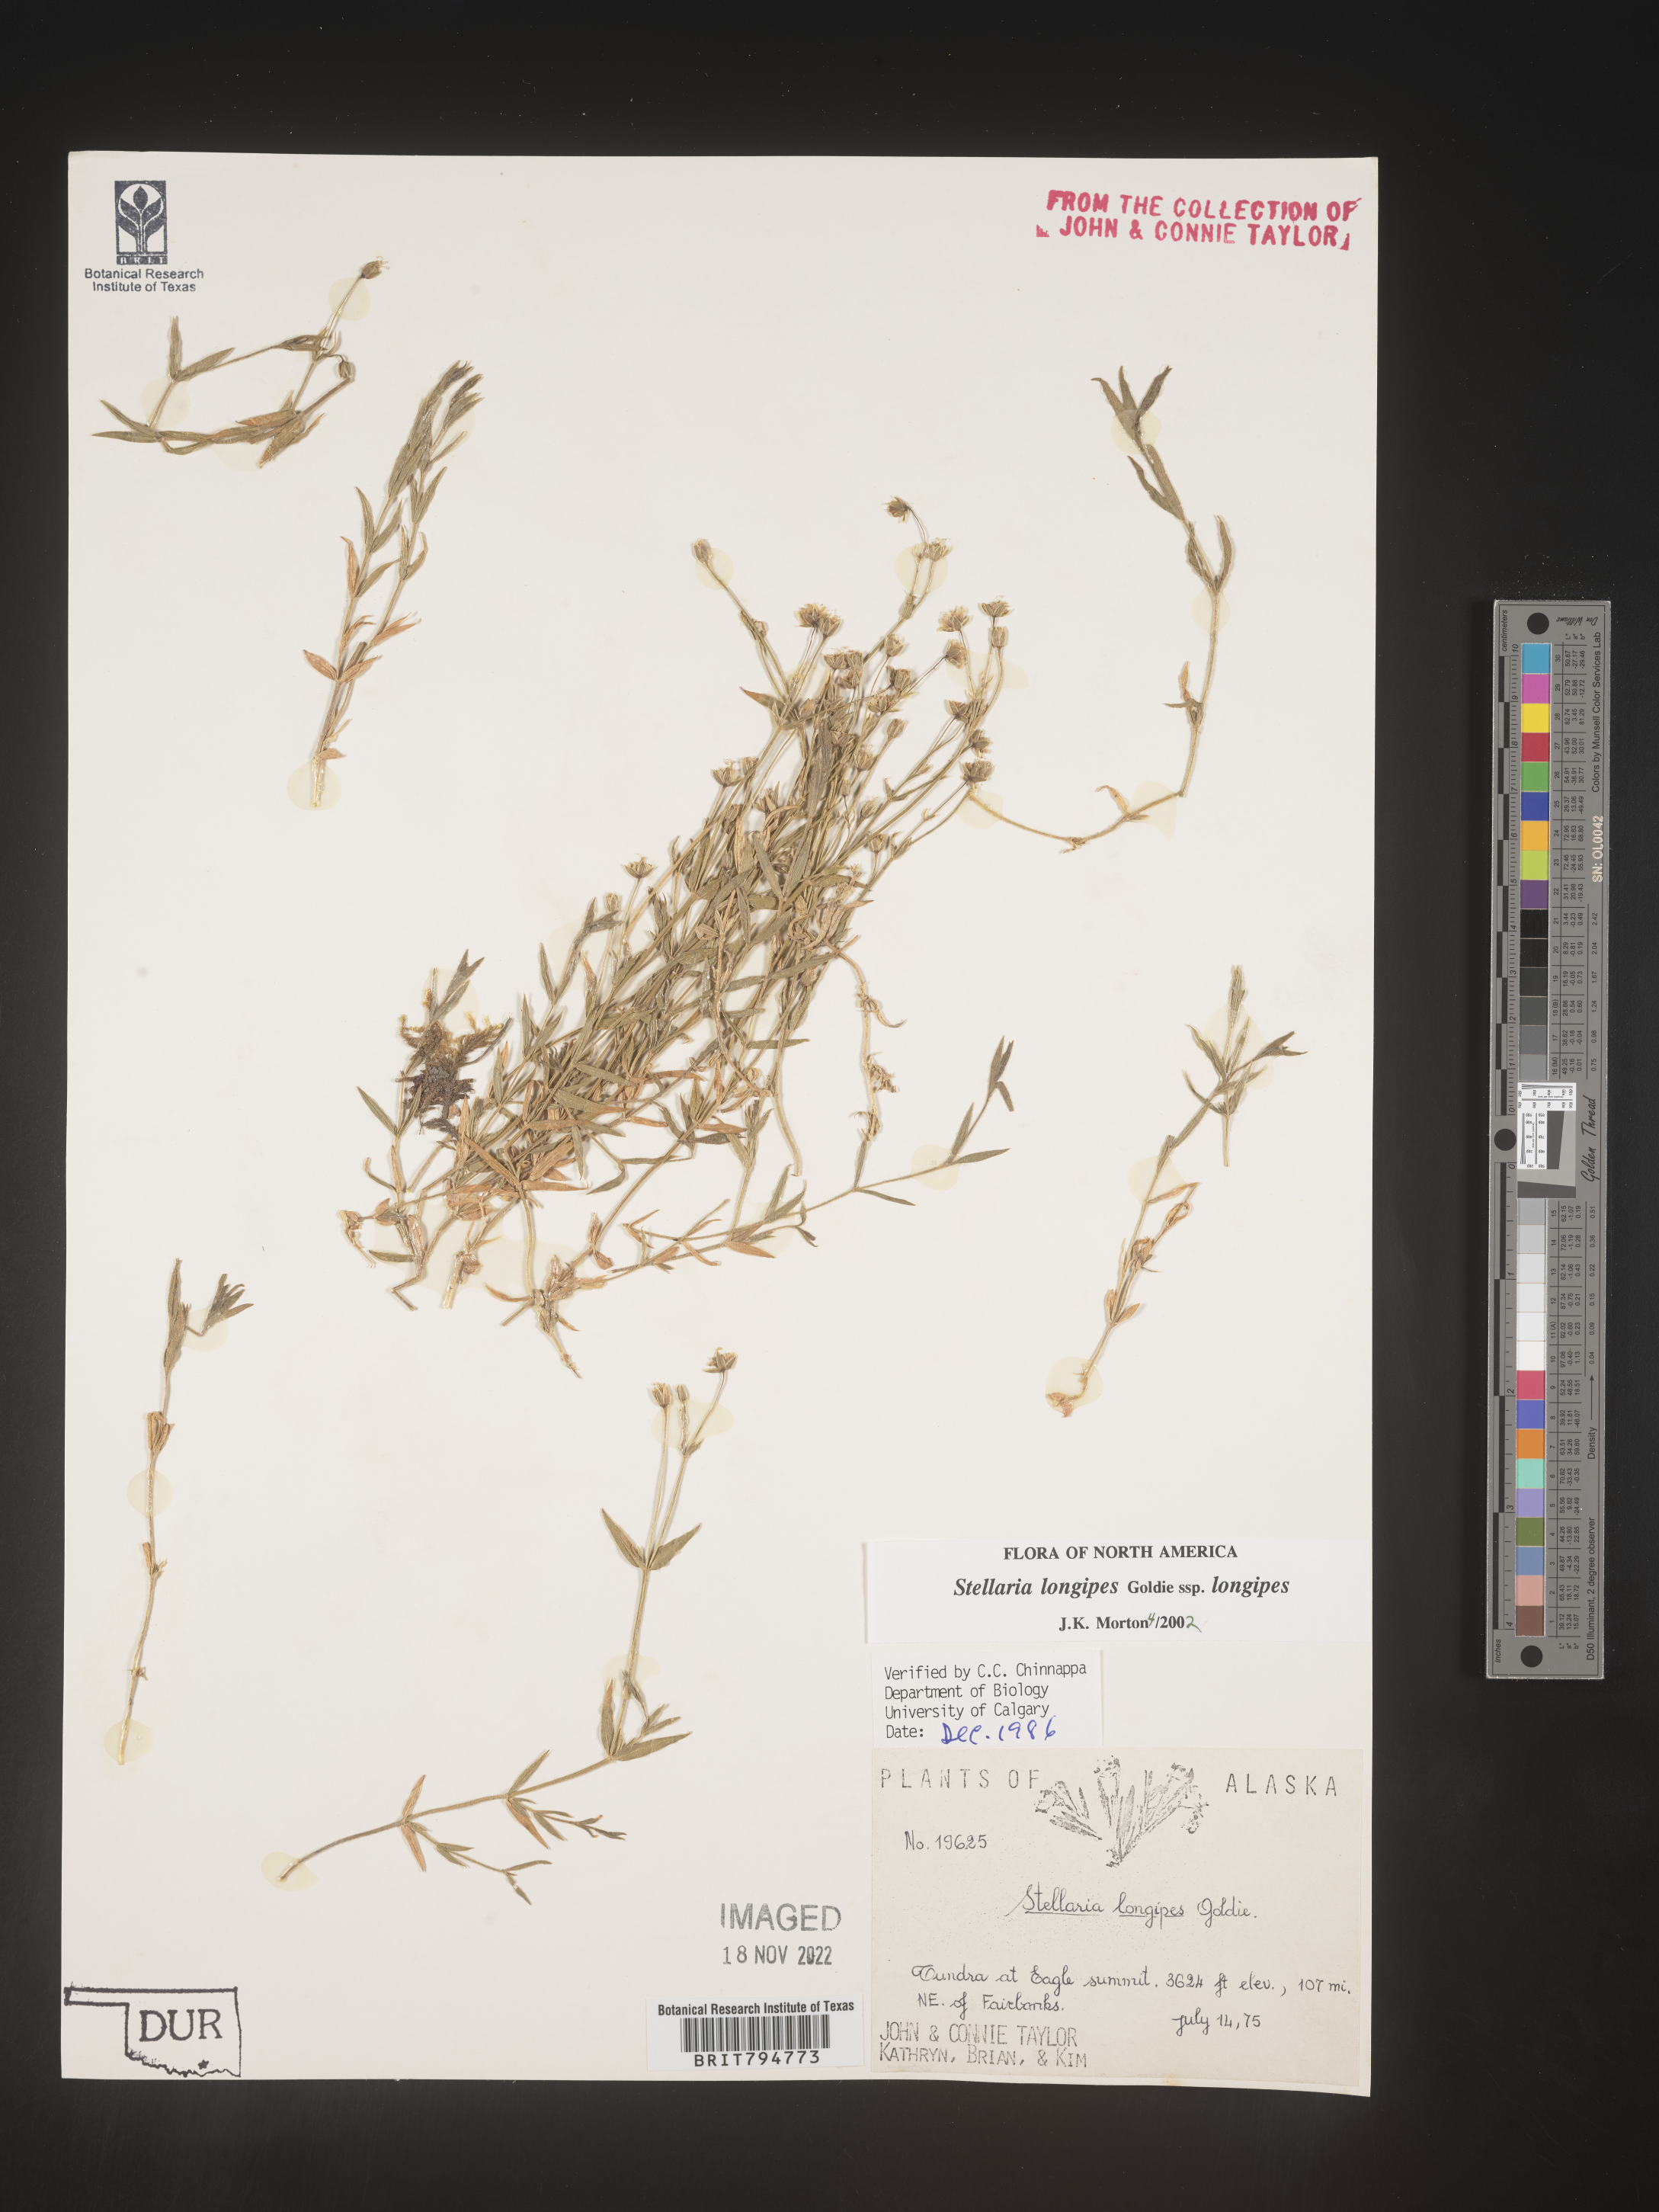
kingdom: Plantae
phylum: Tracheophyta
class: Magnoliopsida
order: Caryophyllales
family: Caryophyllaceae
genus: Stellaria
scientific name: Stellaria longipes
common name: Goldie's starwort
